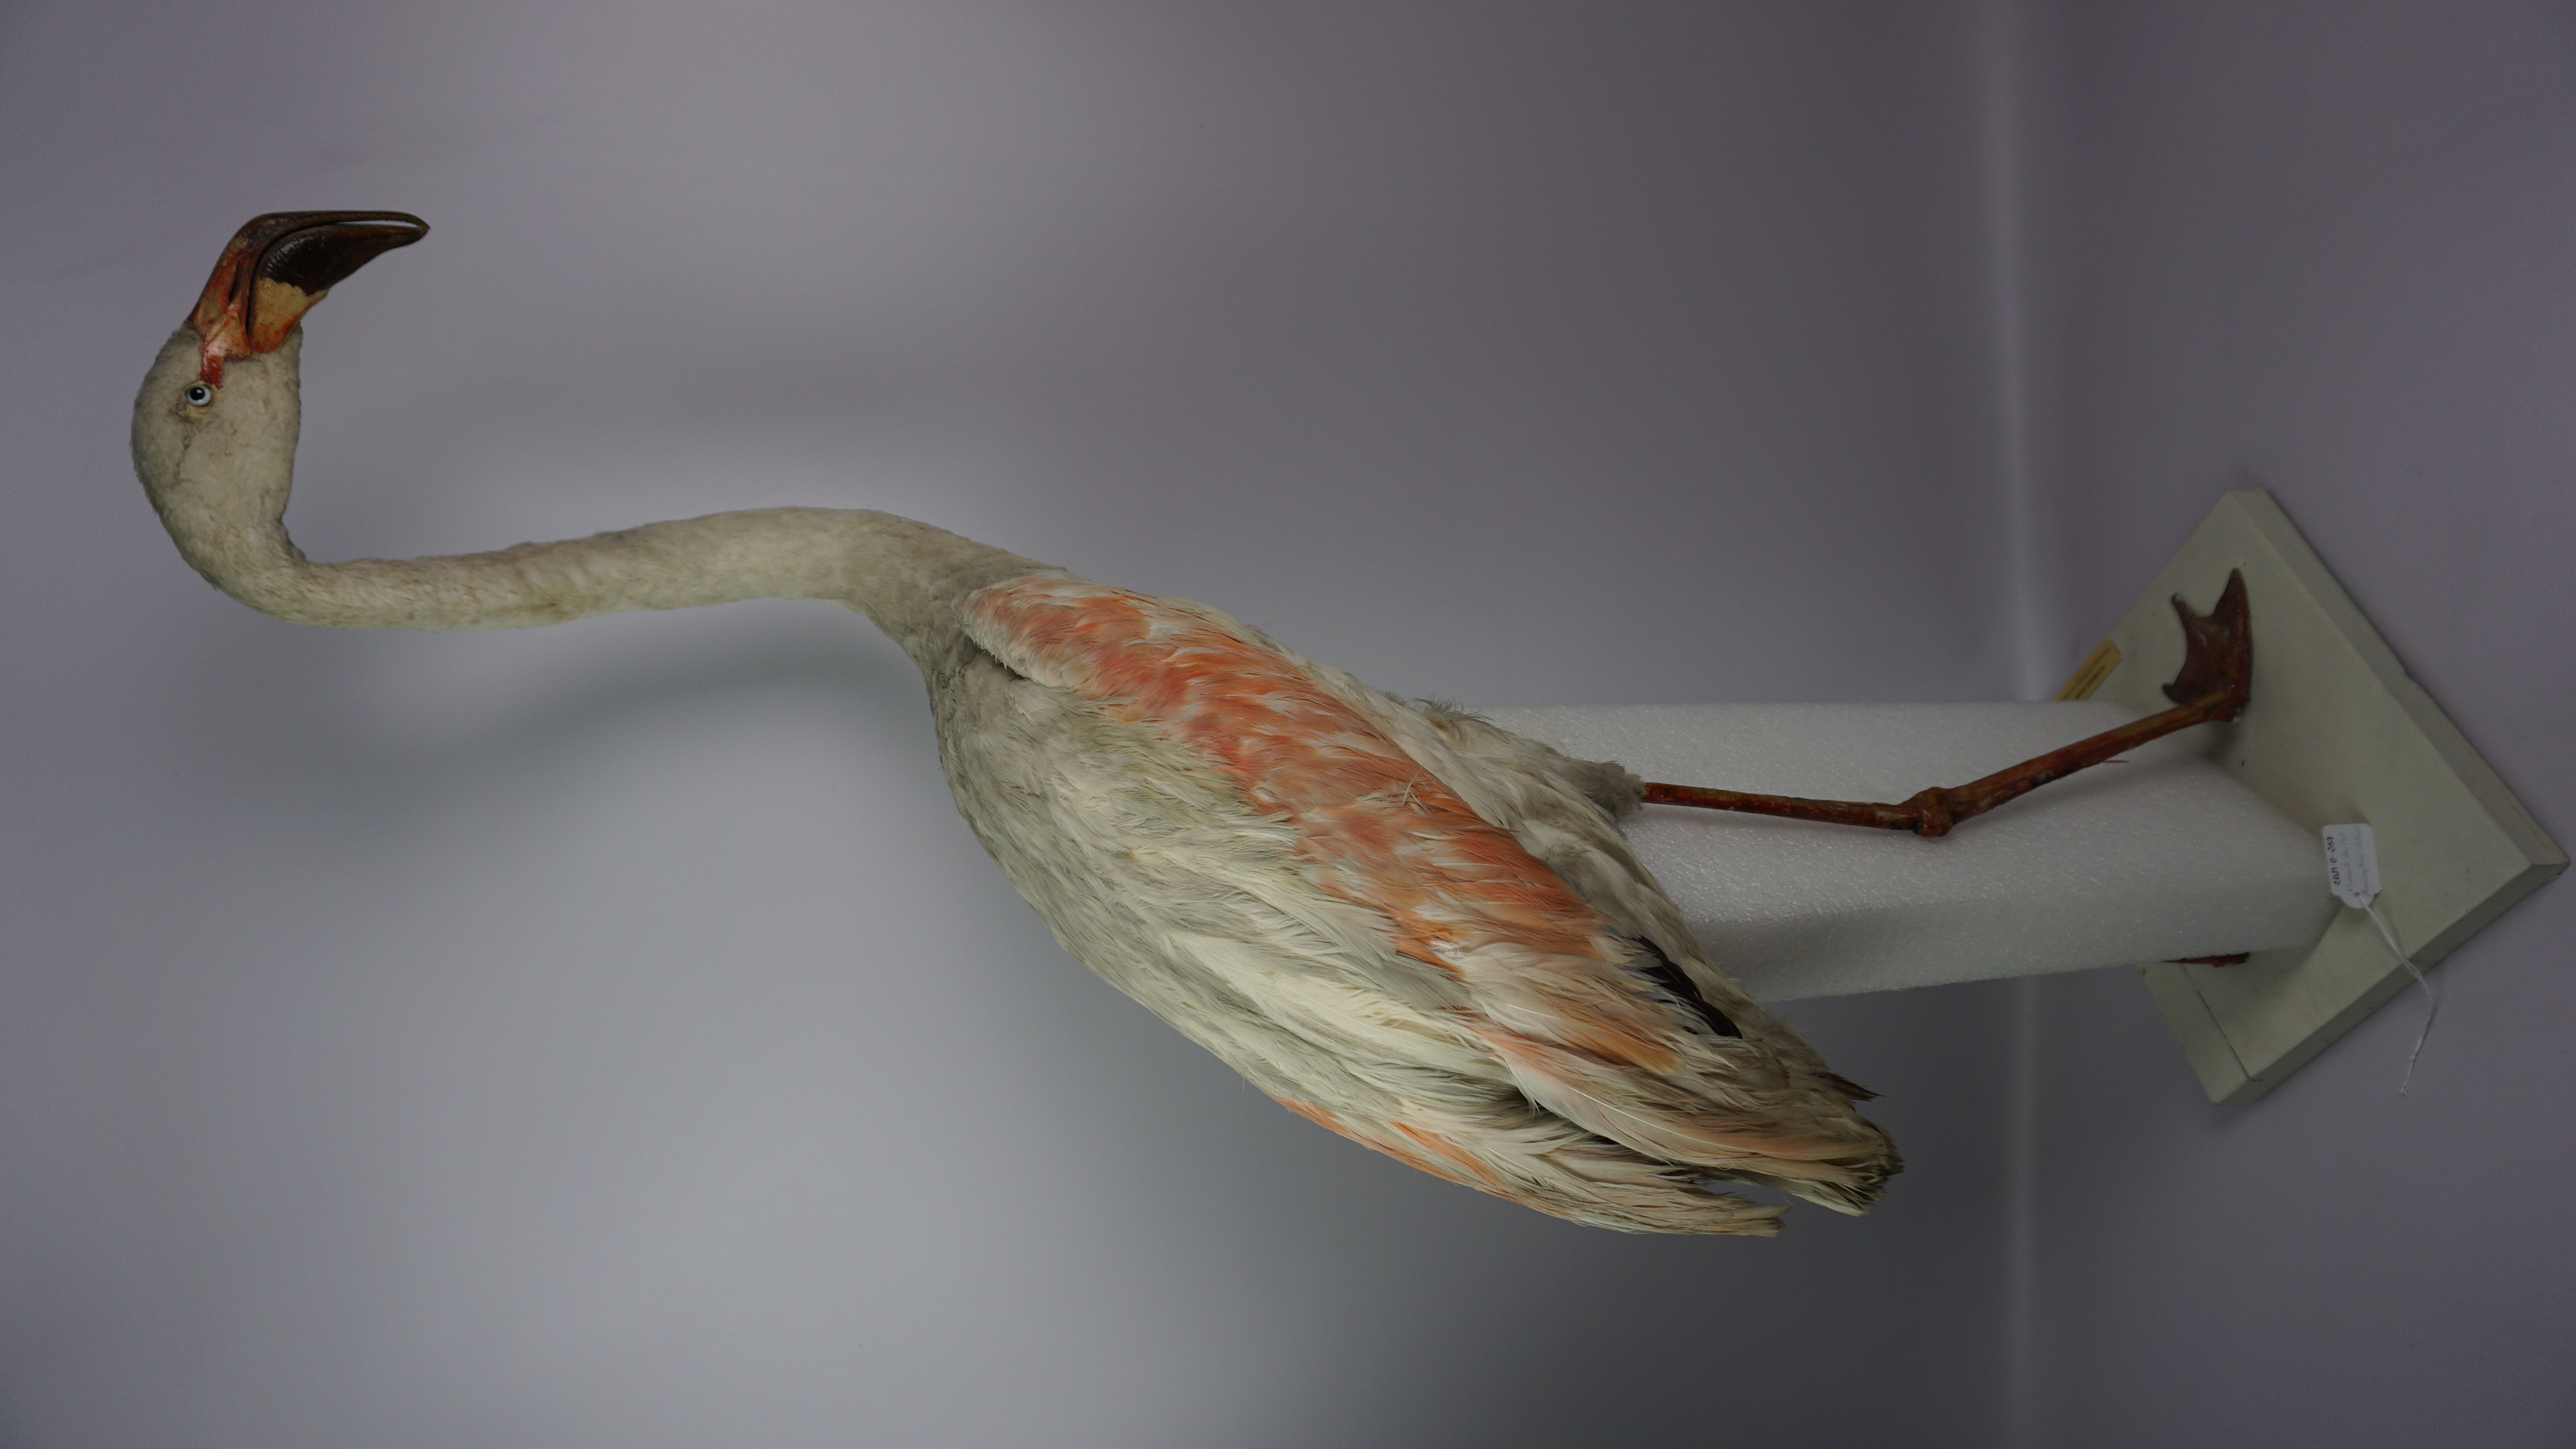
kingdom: Animalia
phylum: Chordata
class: Aves
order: Phoenicopteriformes
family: Phoenicopteridae
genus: Phoenicopterus
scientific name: Phoenicopterus chilensis
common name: Chilean flamingo
